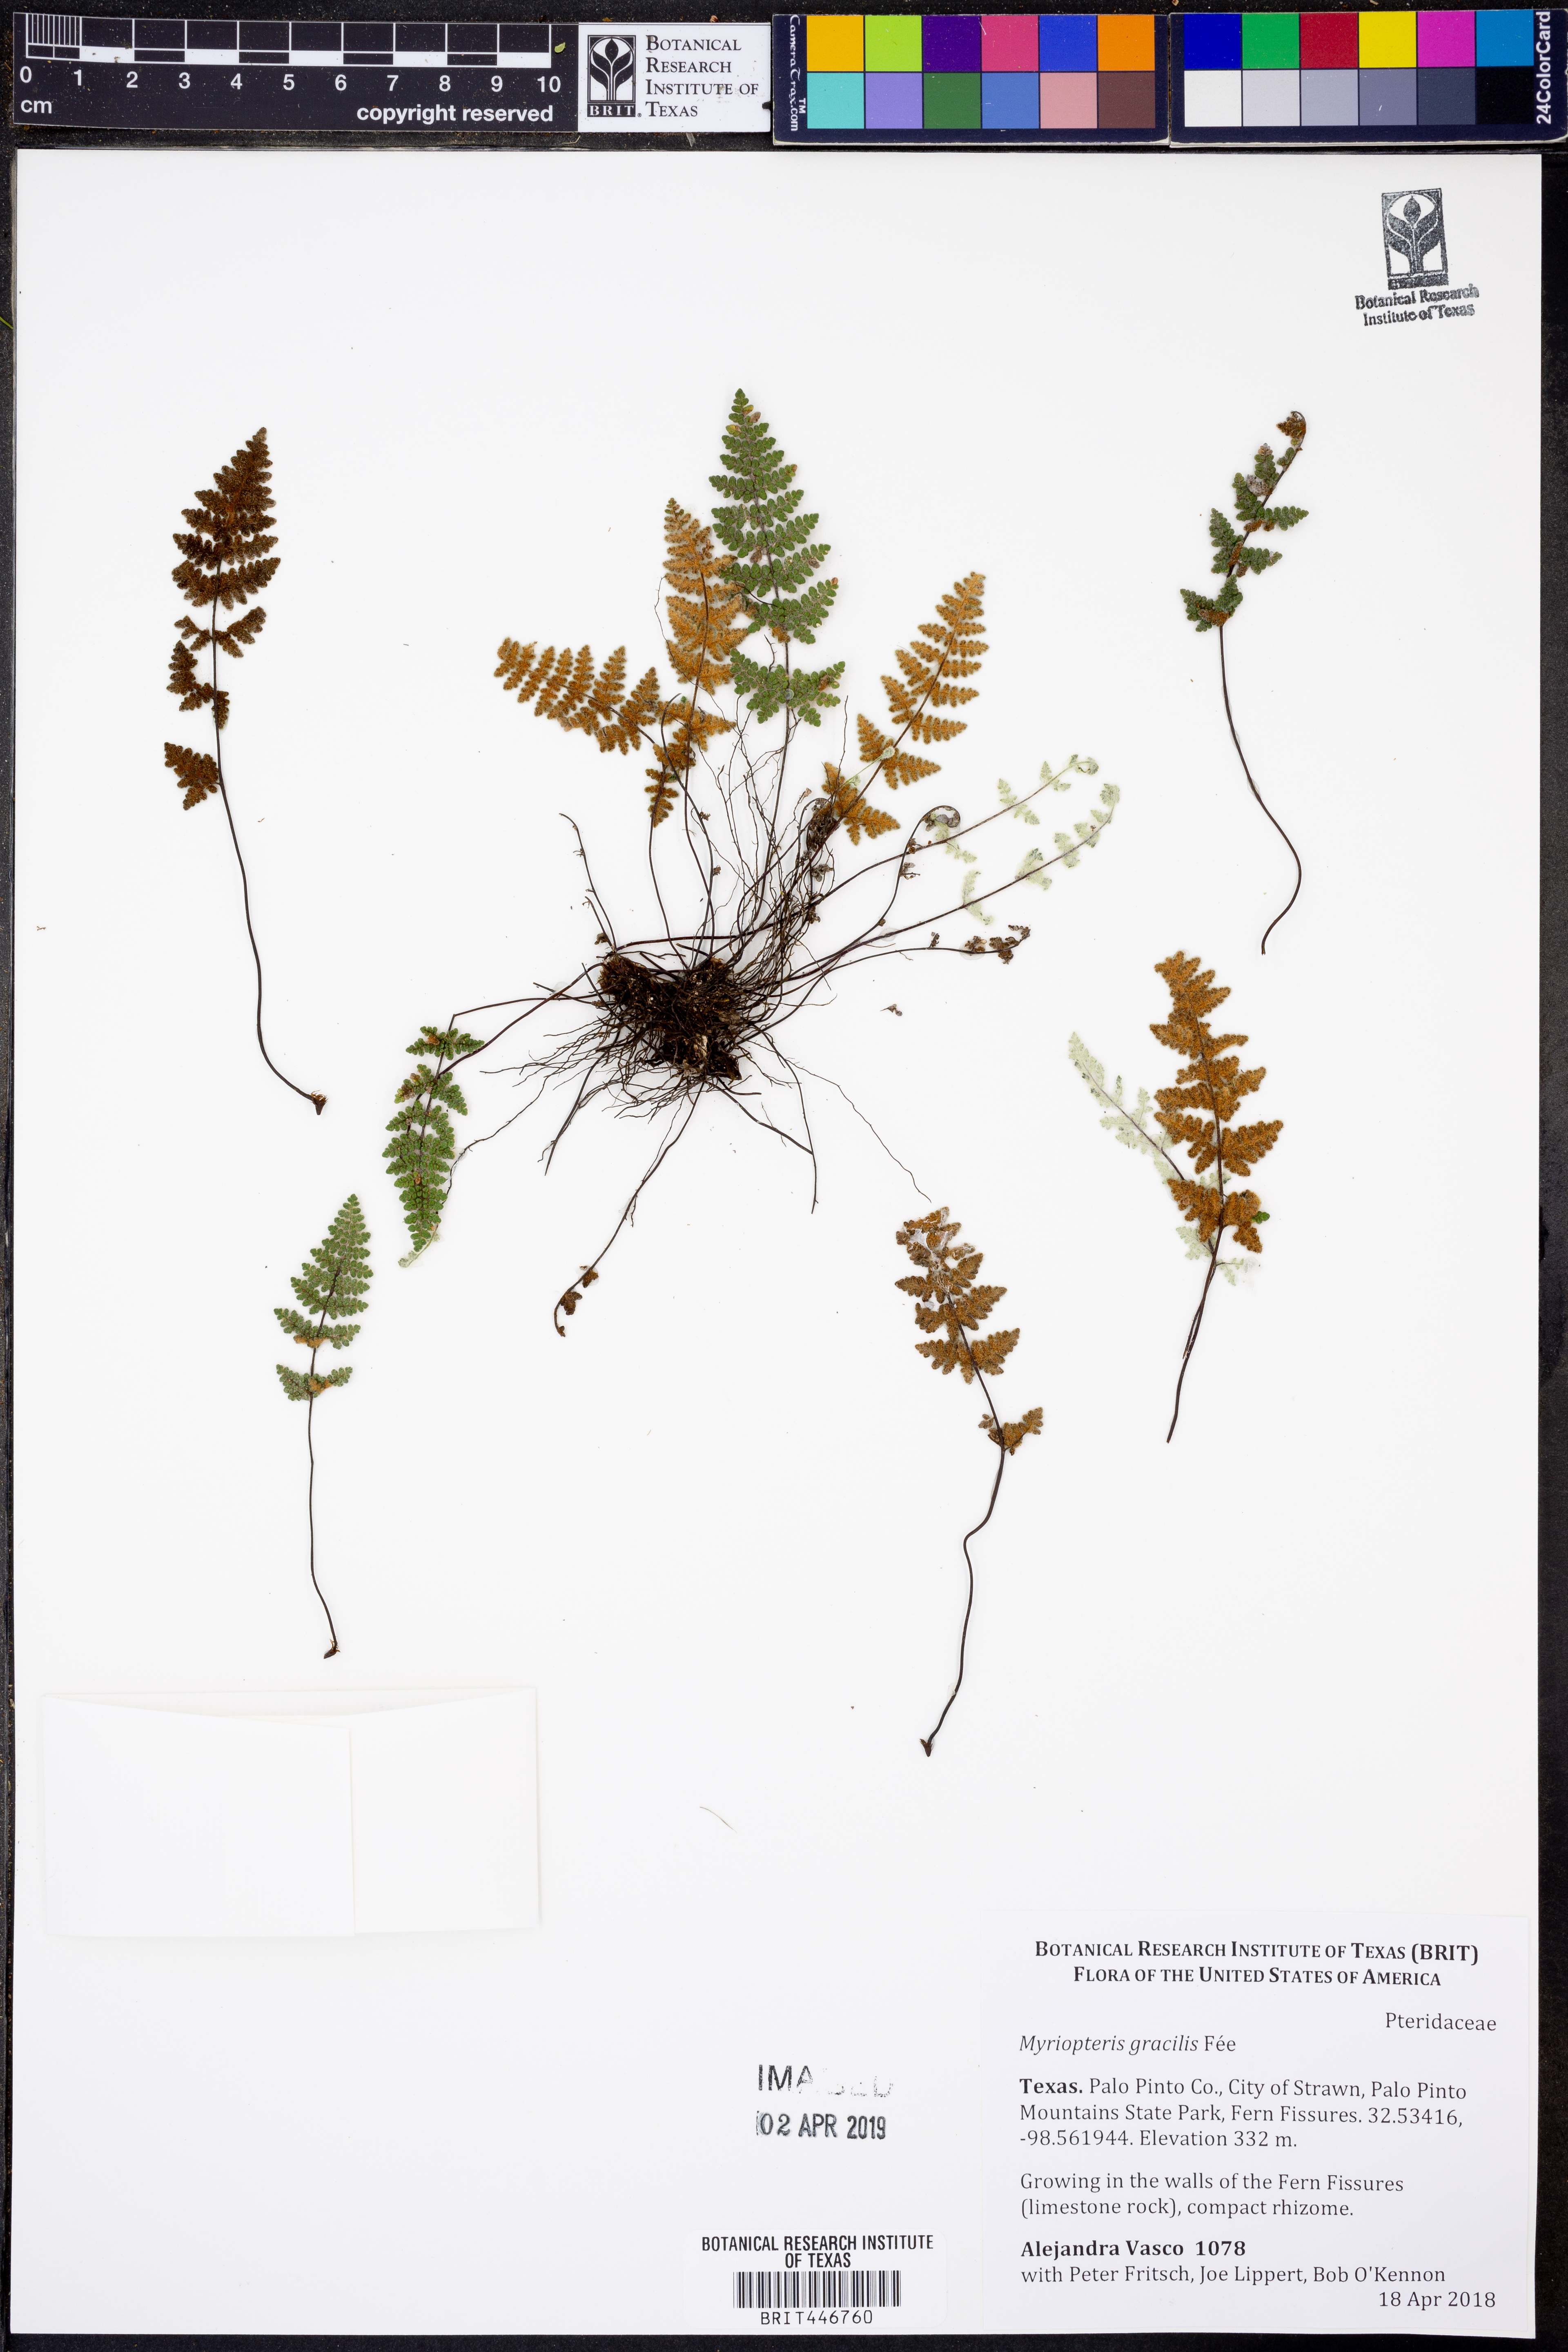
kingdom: Plantae
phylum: Tracheophyta
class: Polypodiopsida
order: Polypodiales
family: Pteridaceae
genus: Myriopteris
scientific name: Myriopteris gracilis
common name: Fee's lip fern
